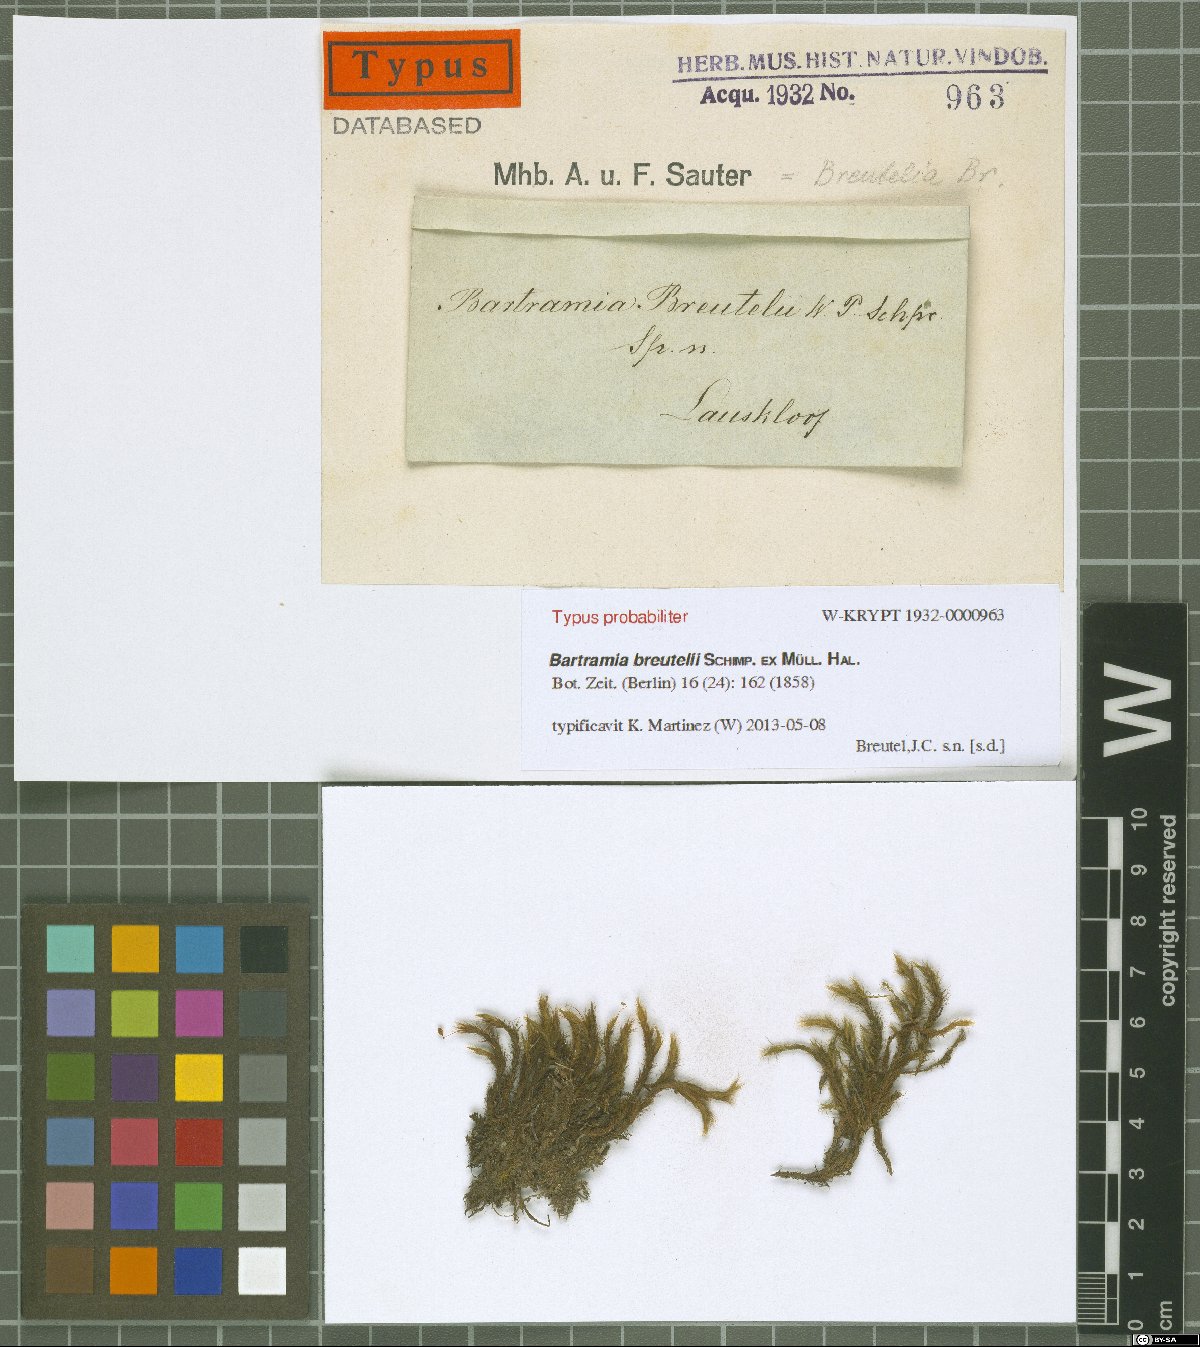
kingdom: Plantae
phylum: Bryophyta
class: Bryopsida
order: Bartramiales
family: Bartramiaceae
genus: Anacolia
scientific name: Anacolia breutelii
